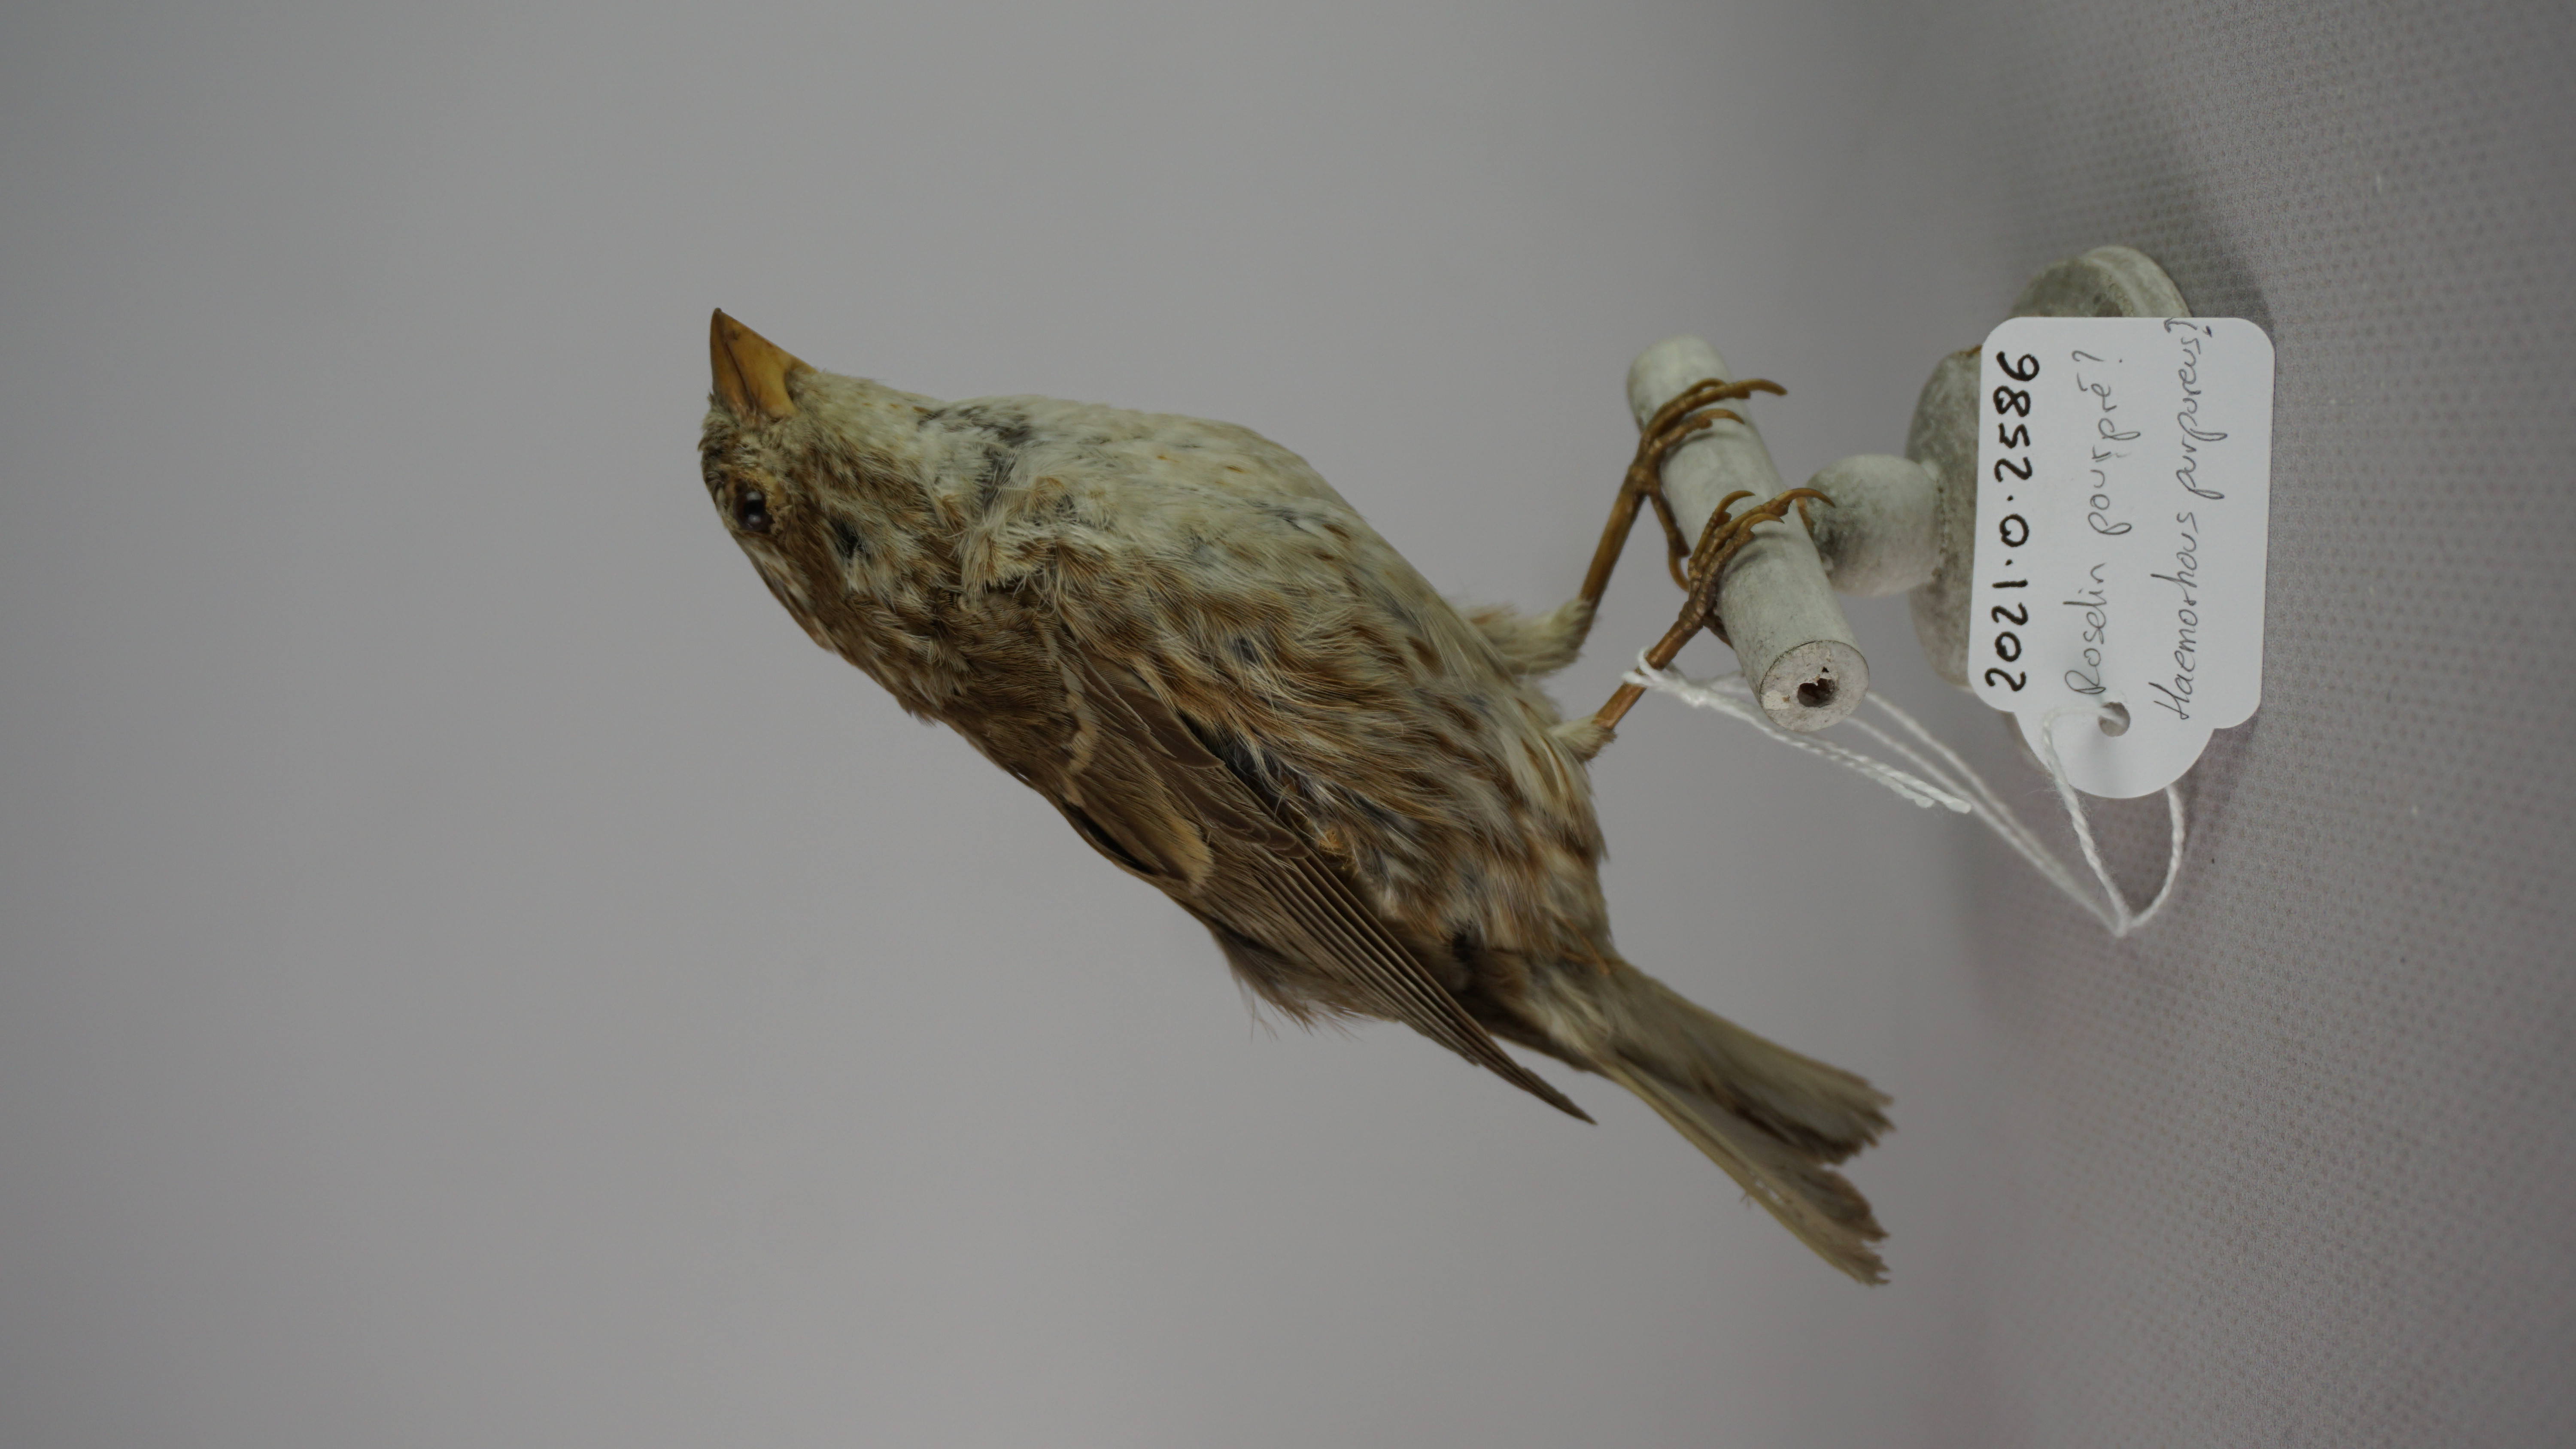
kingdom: Animalia
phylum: Chordata
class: Aves
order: Passeriformes
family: Fringillidae
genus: Haemorhous
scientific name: Haemorhous purpureus
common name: Purple finch
